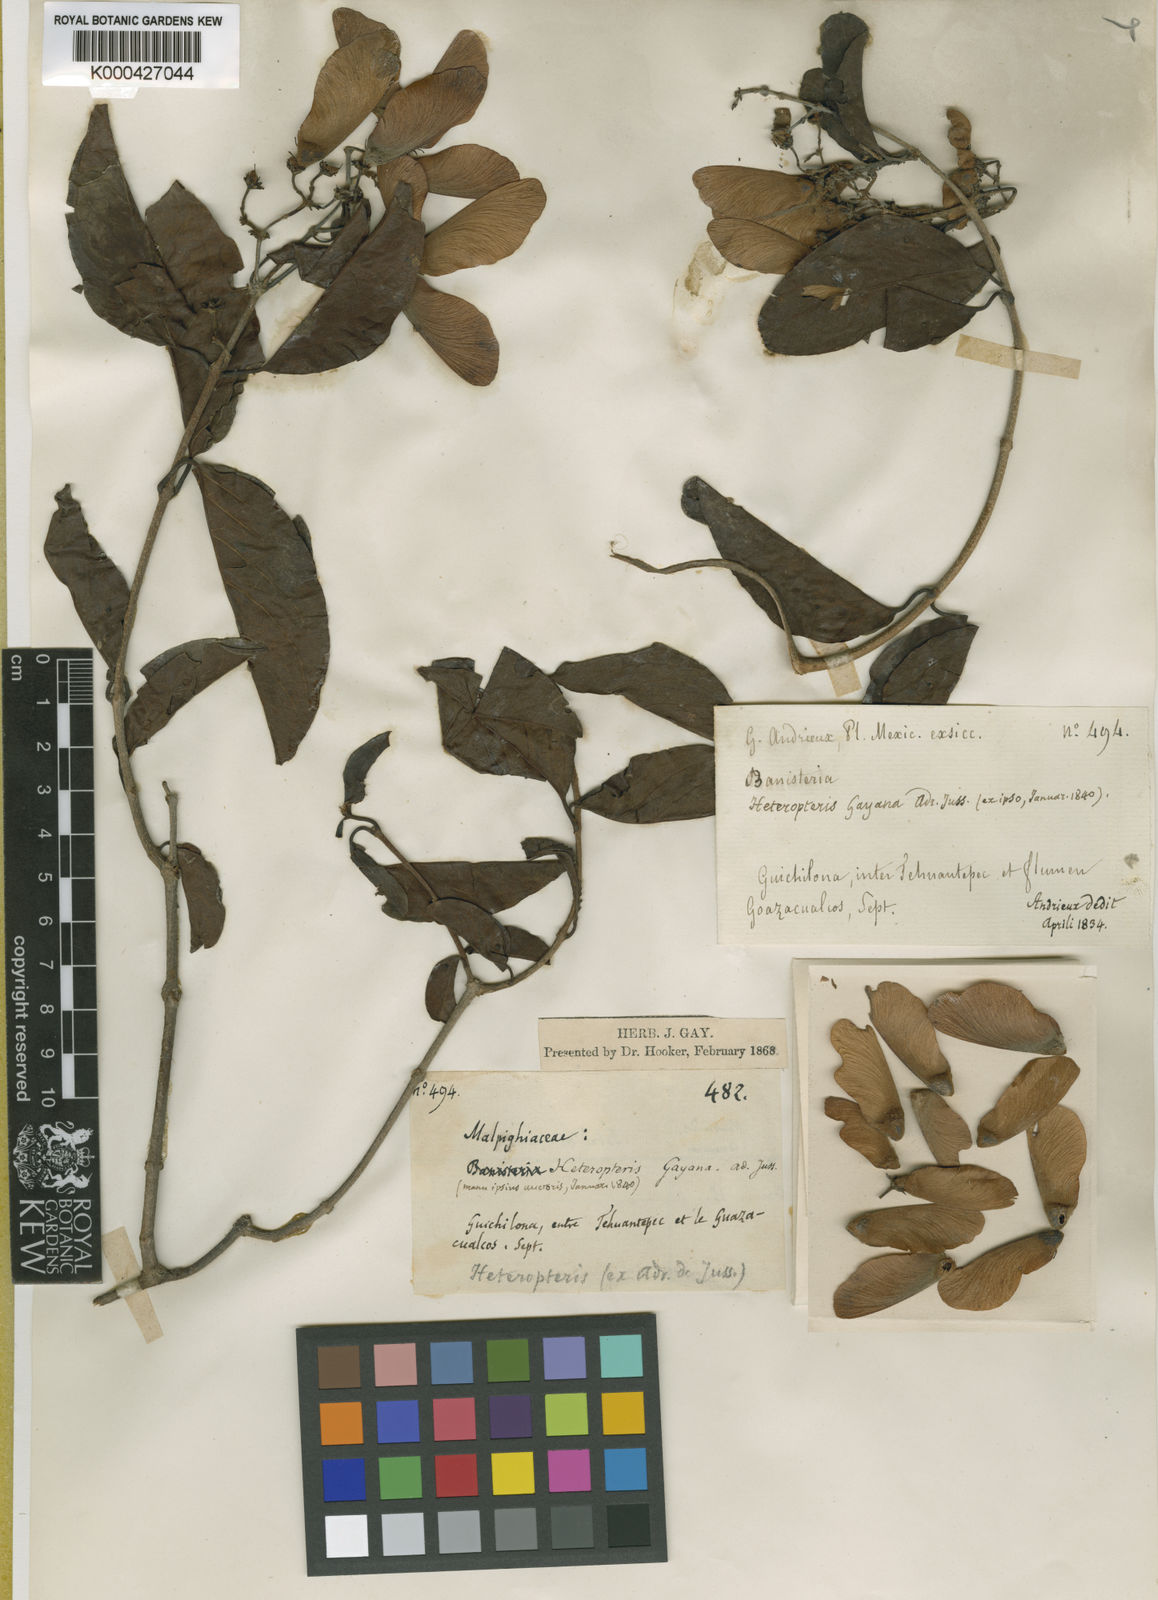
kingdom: Plantae
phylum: Tracheophyta
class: Magnoliopsida
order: Malpighiales
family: Malpighiaceae
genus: Heteropterys
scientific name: Heteropterys cotinifolia
